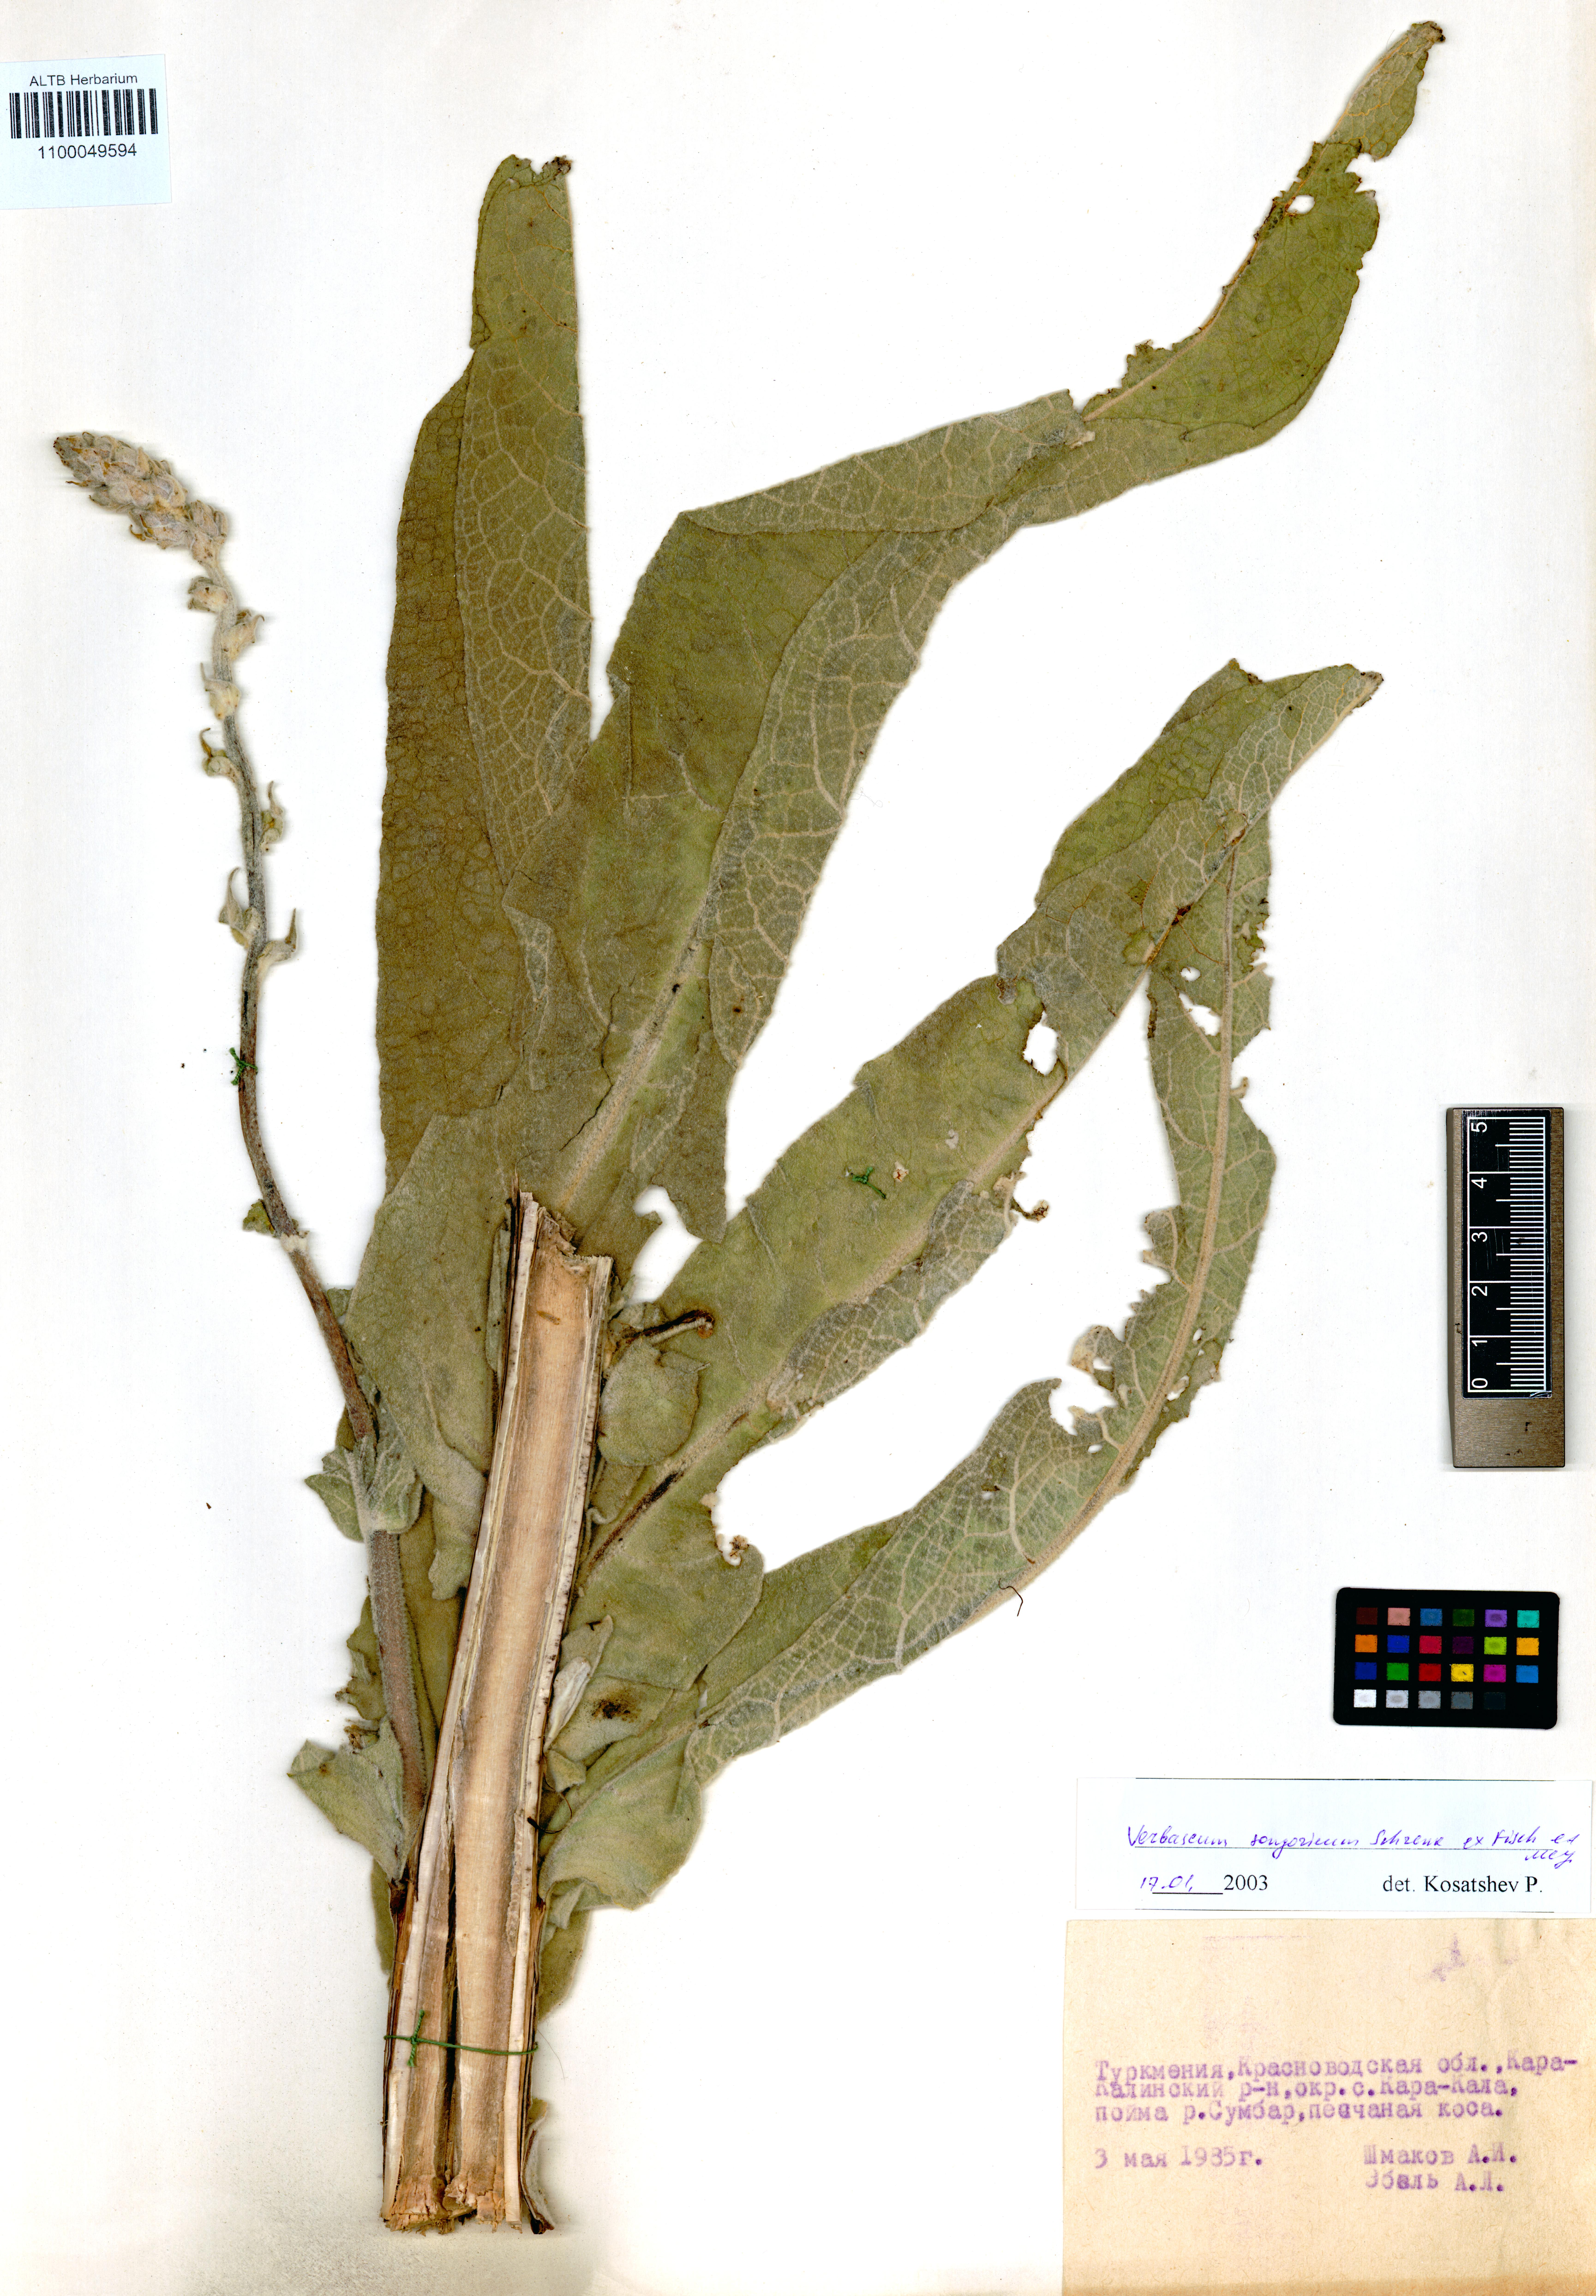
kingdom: Plantae
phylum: Tracheophyta
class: Magnoliopsida
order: Lamiales
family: Scrophulariaceae
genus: Verbascum
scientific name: Verbascum songaricum
